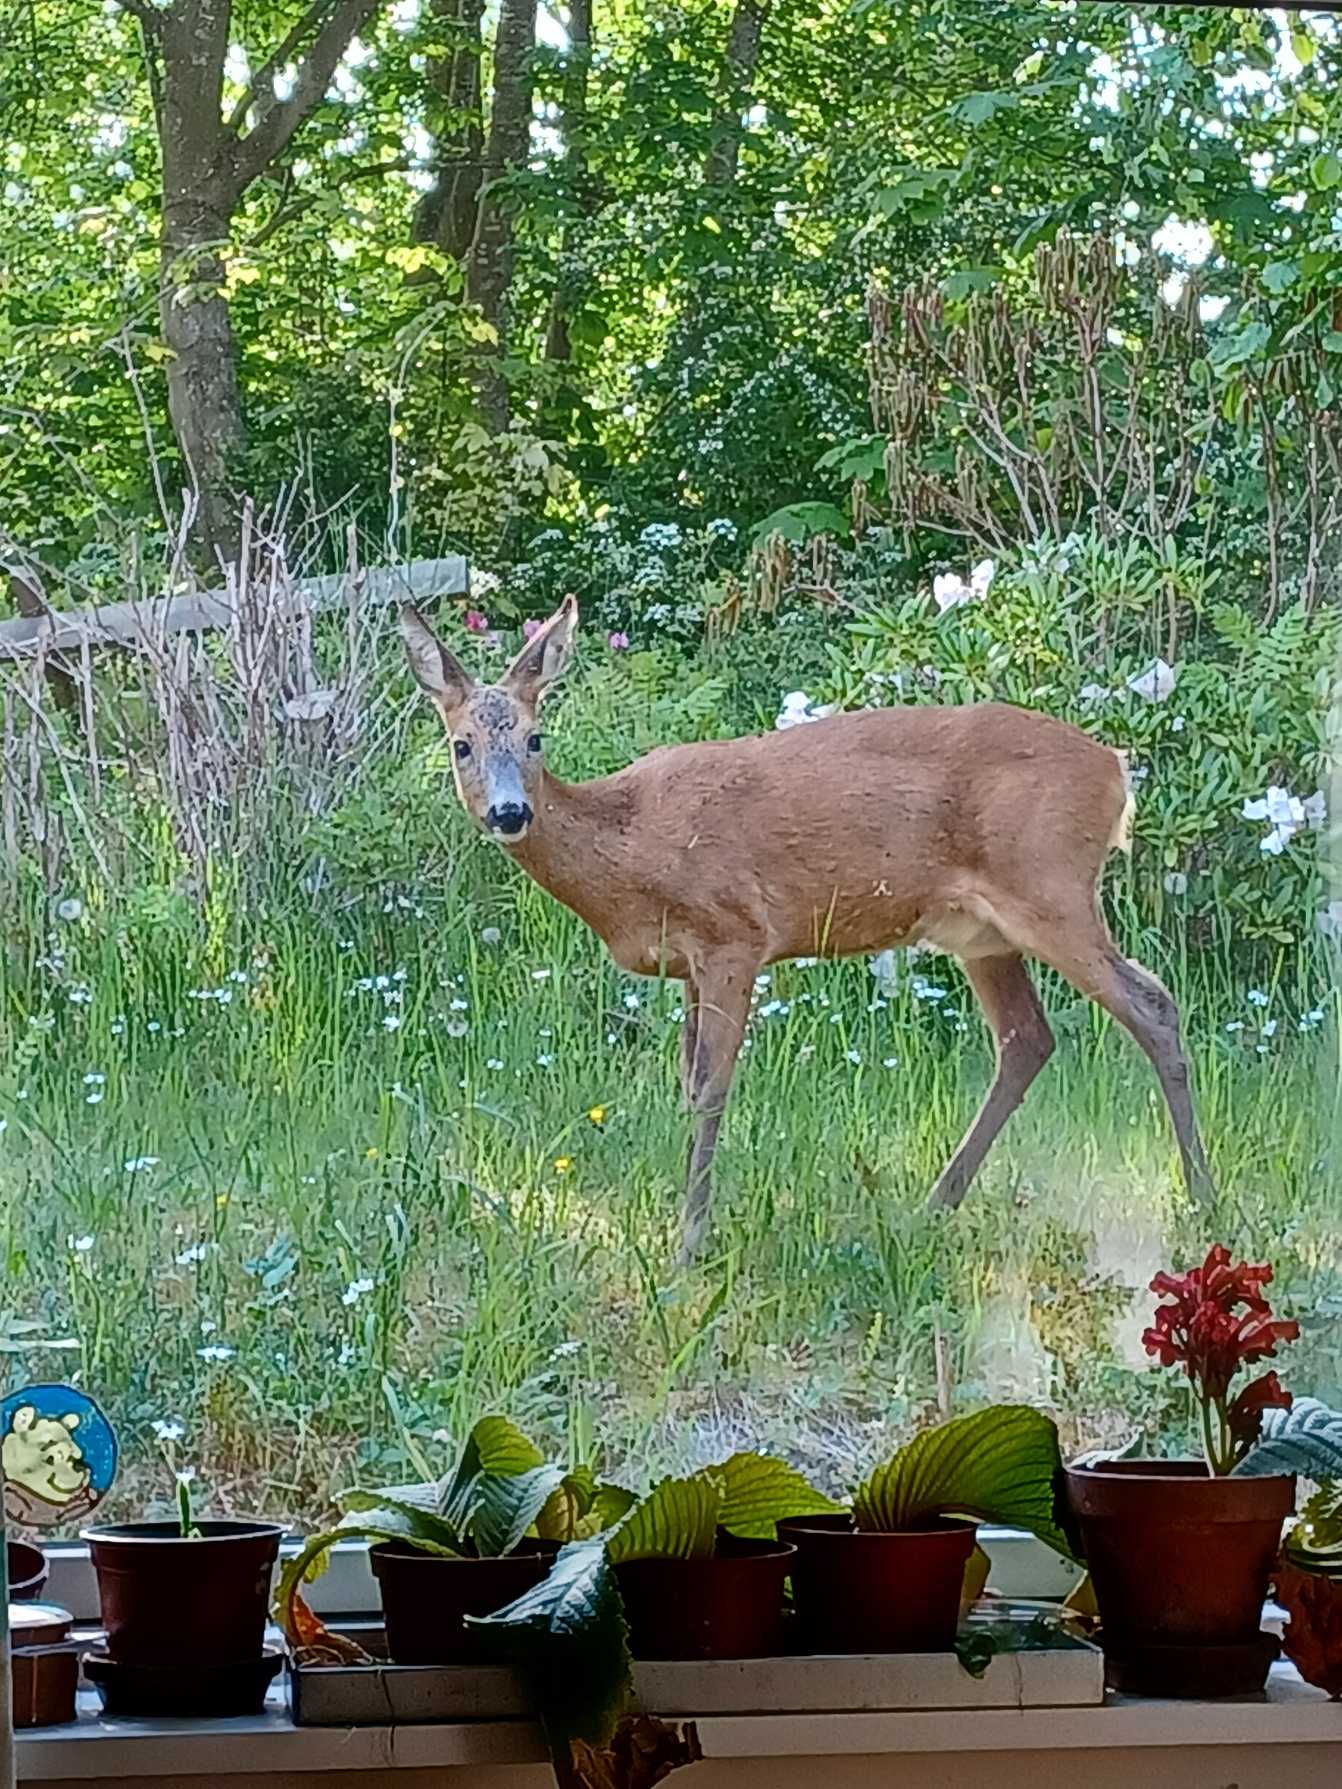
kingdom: Animalia
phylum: Chordata
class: Mammalia
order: Artiodactyla
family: Cervidae
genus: Capreolus
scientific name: Capreolus capreolus
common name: Rådyr
